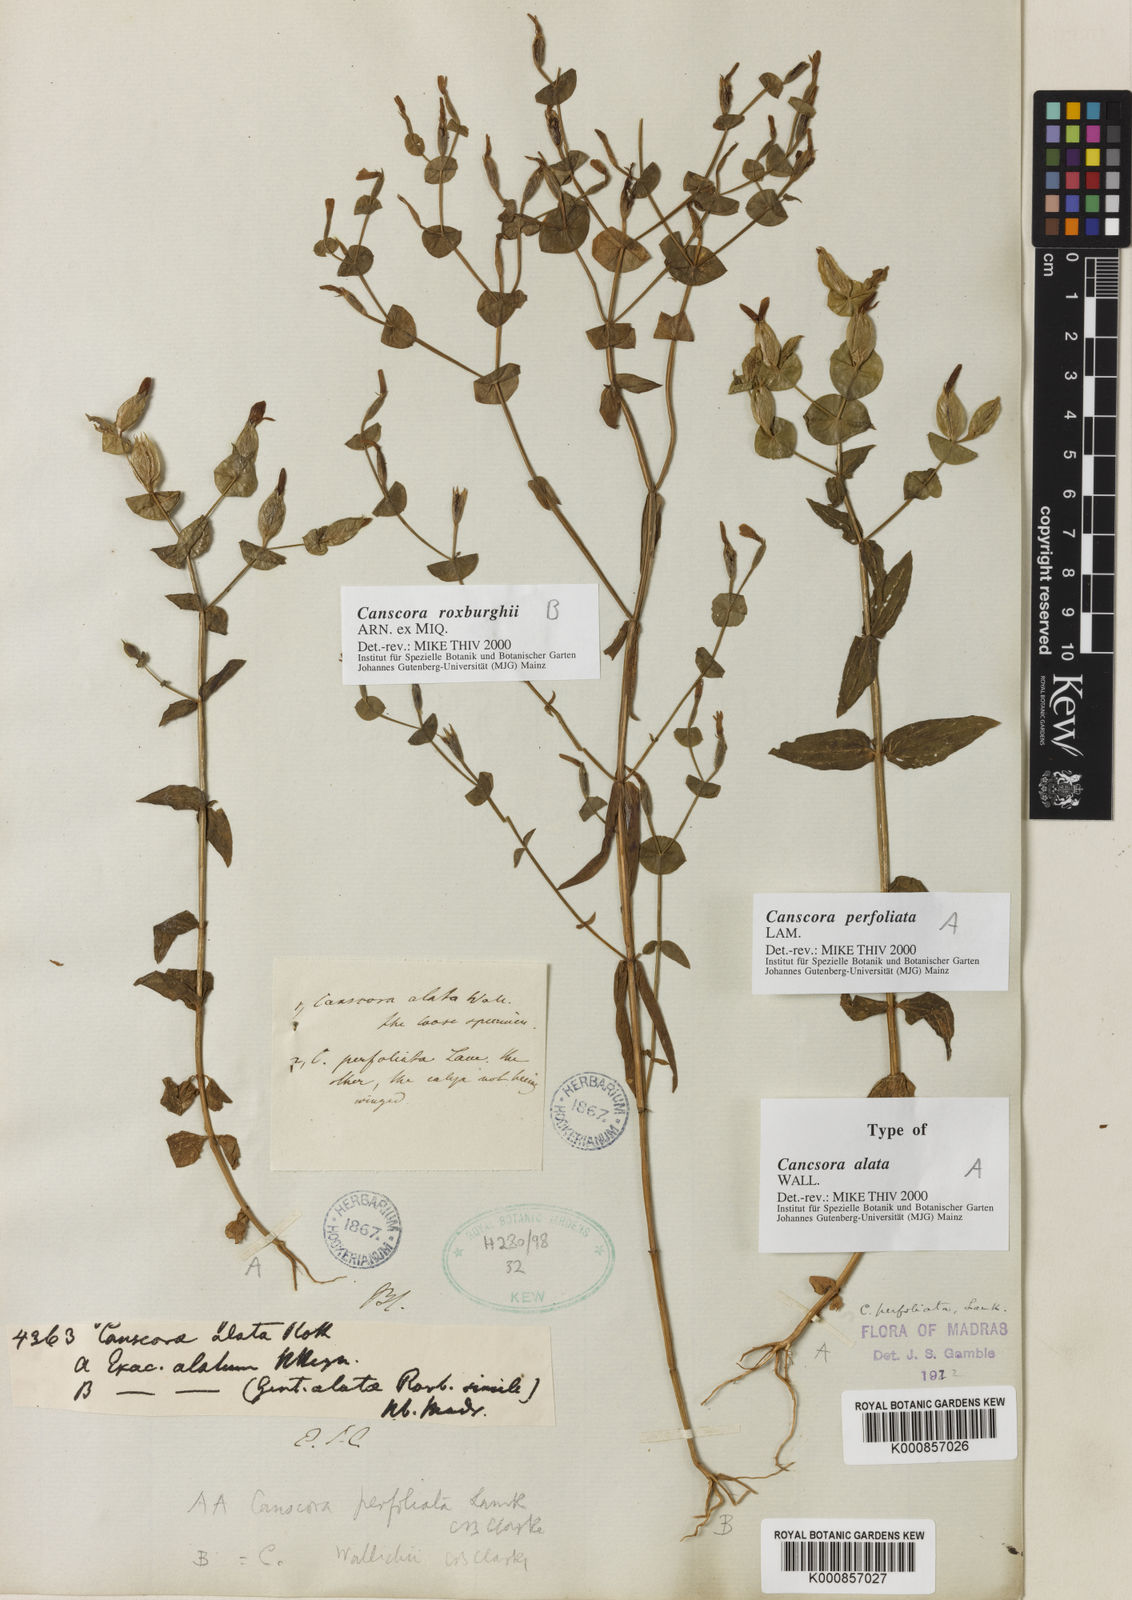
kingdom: Plantae
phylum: Tracheophyta
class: Magnoliopsida
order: Gentianales
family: Gentianaceae
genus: Canscora
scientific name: Canscora perfoliata
